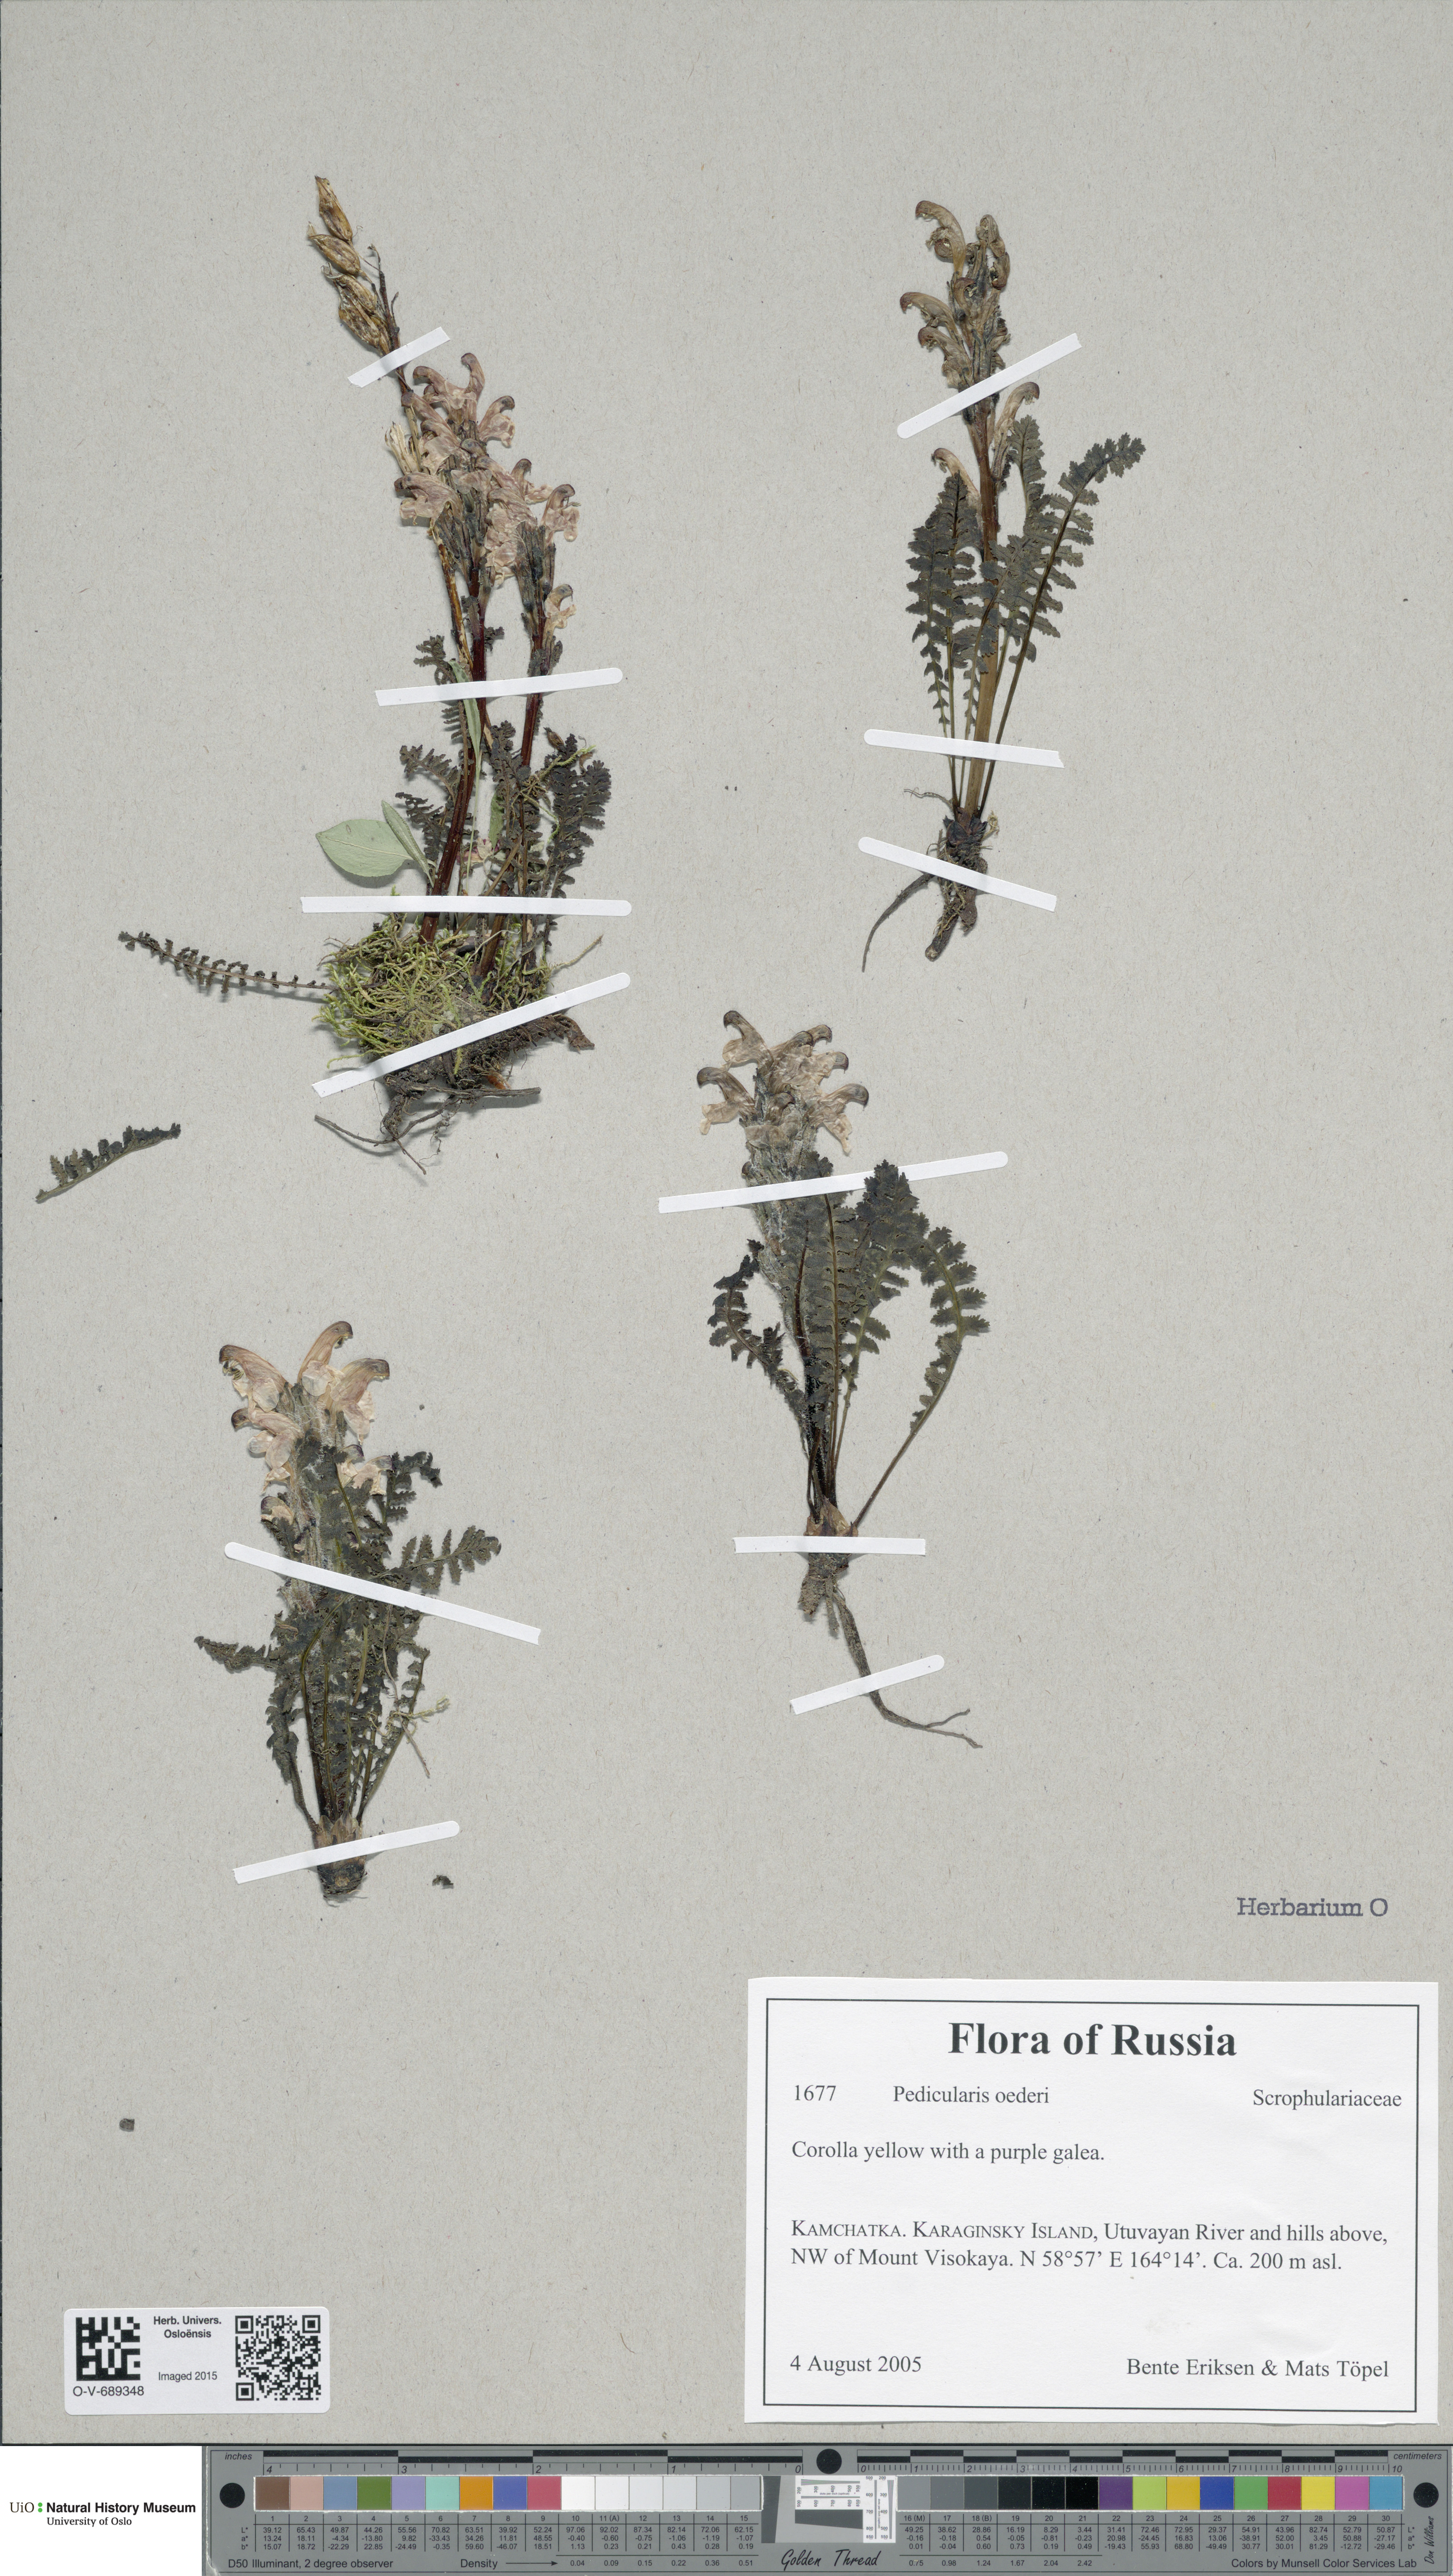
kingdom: Plantae
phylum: Tracheophyta
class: Magnoliopsida
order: Lamiales
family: Orobanchaceae
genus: Pedicularis
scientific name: Pedicularis oederi
